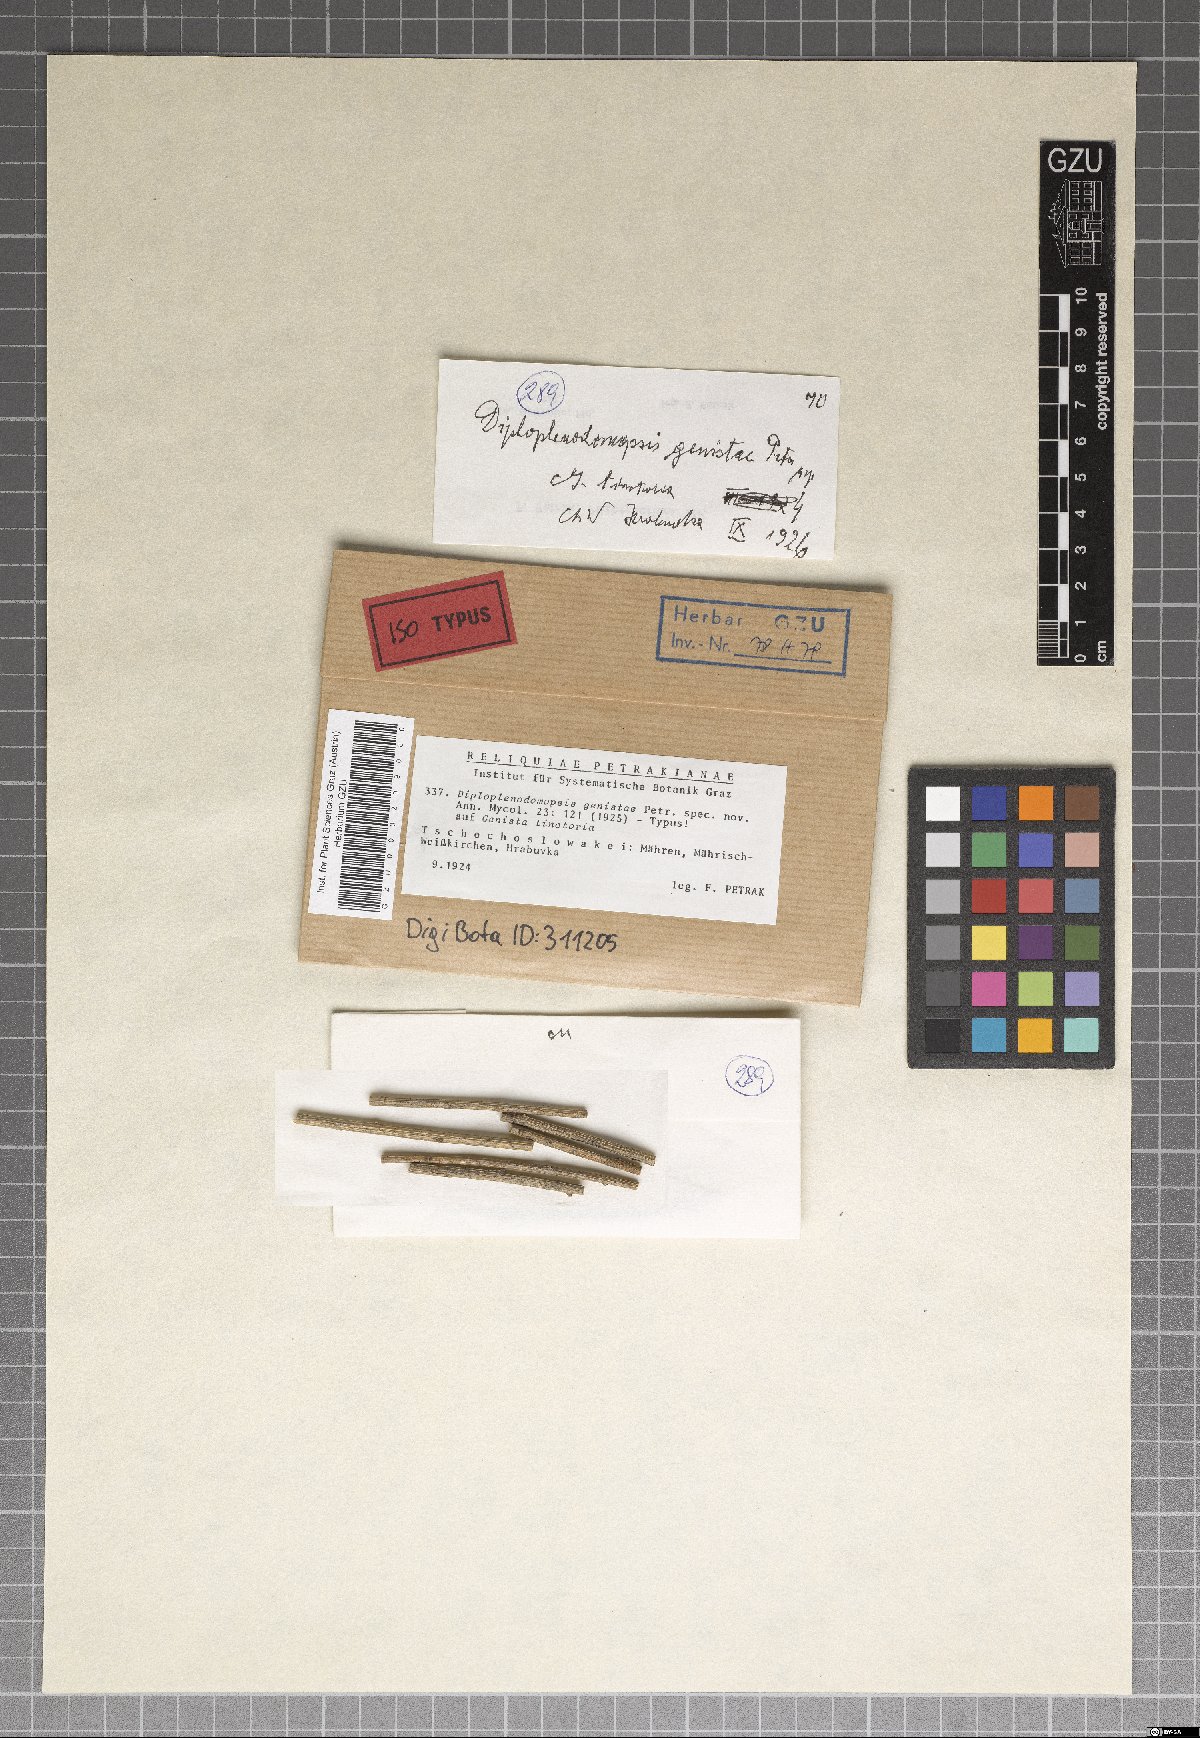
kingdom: Fungi
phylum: Ascomycota
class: Sordariomycetes
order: Diaporthales
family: Gnomoniaceae
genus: Diploplenodomopsis
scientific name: Diploplenodomopsis genistae
